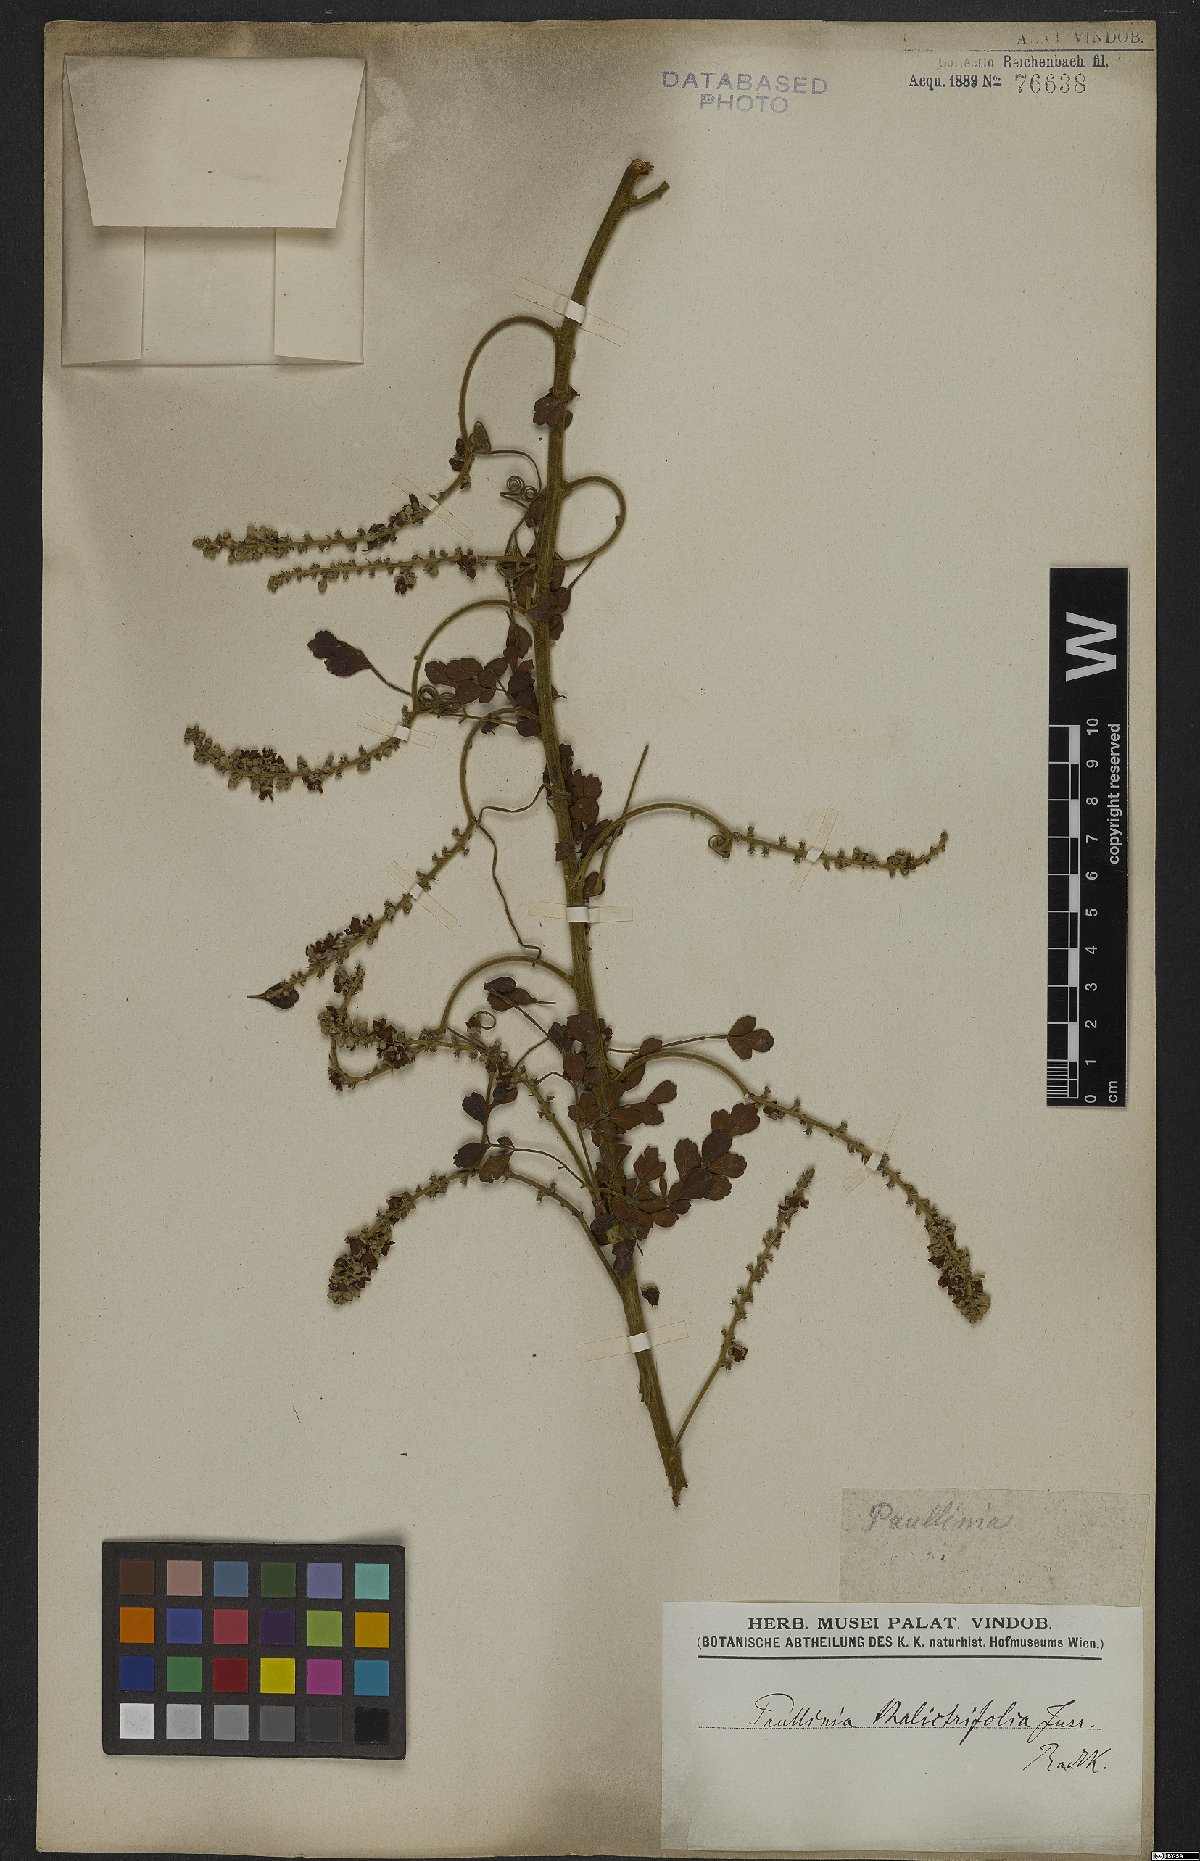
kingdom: Plantae
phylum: Tracheophyta
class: Magnoliopsida
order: Sapindales
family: Sapindaceae
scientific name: Sapindaceae
